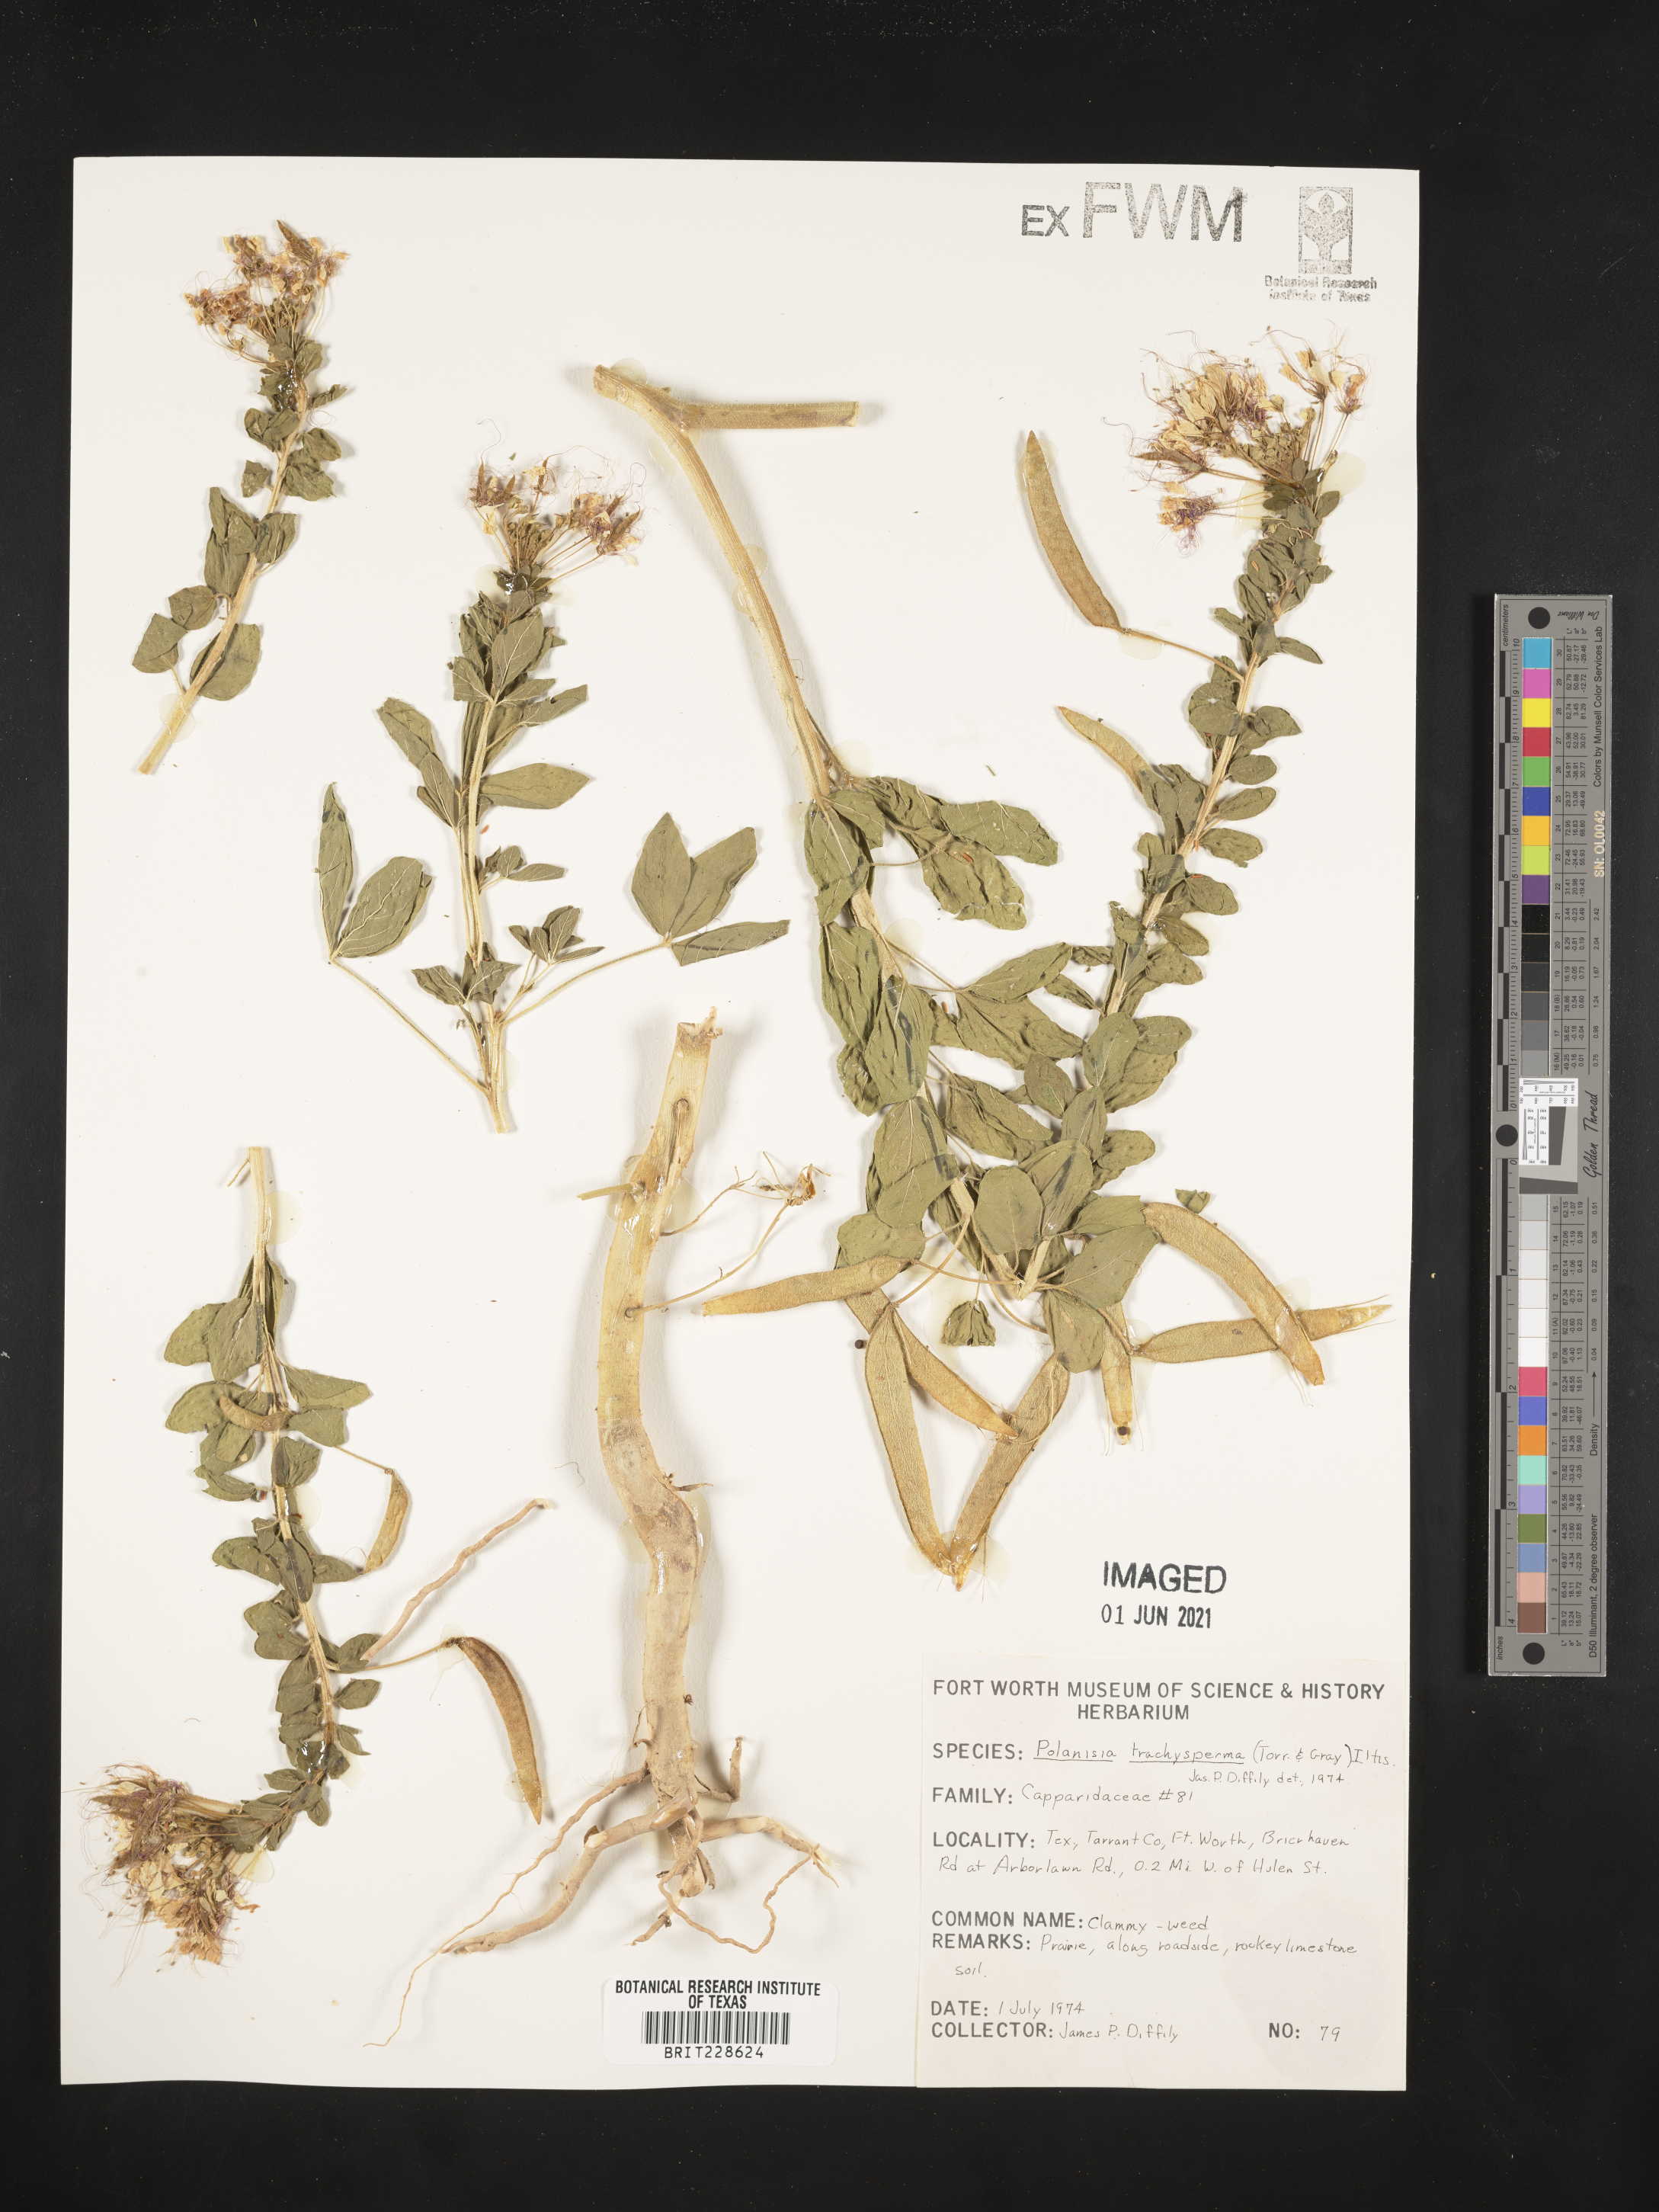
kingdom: Plantae
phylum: Tracheophyta
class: Magnoliopsida
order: Brassicales
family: Cleomaceae
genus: Polanisia
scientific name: Polanisia trachysperma
